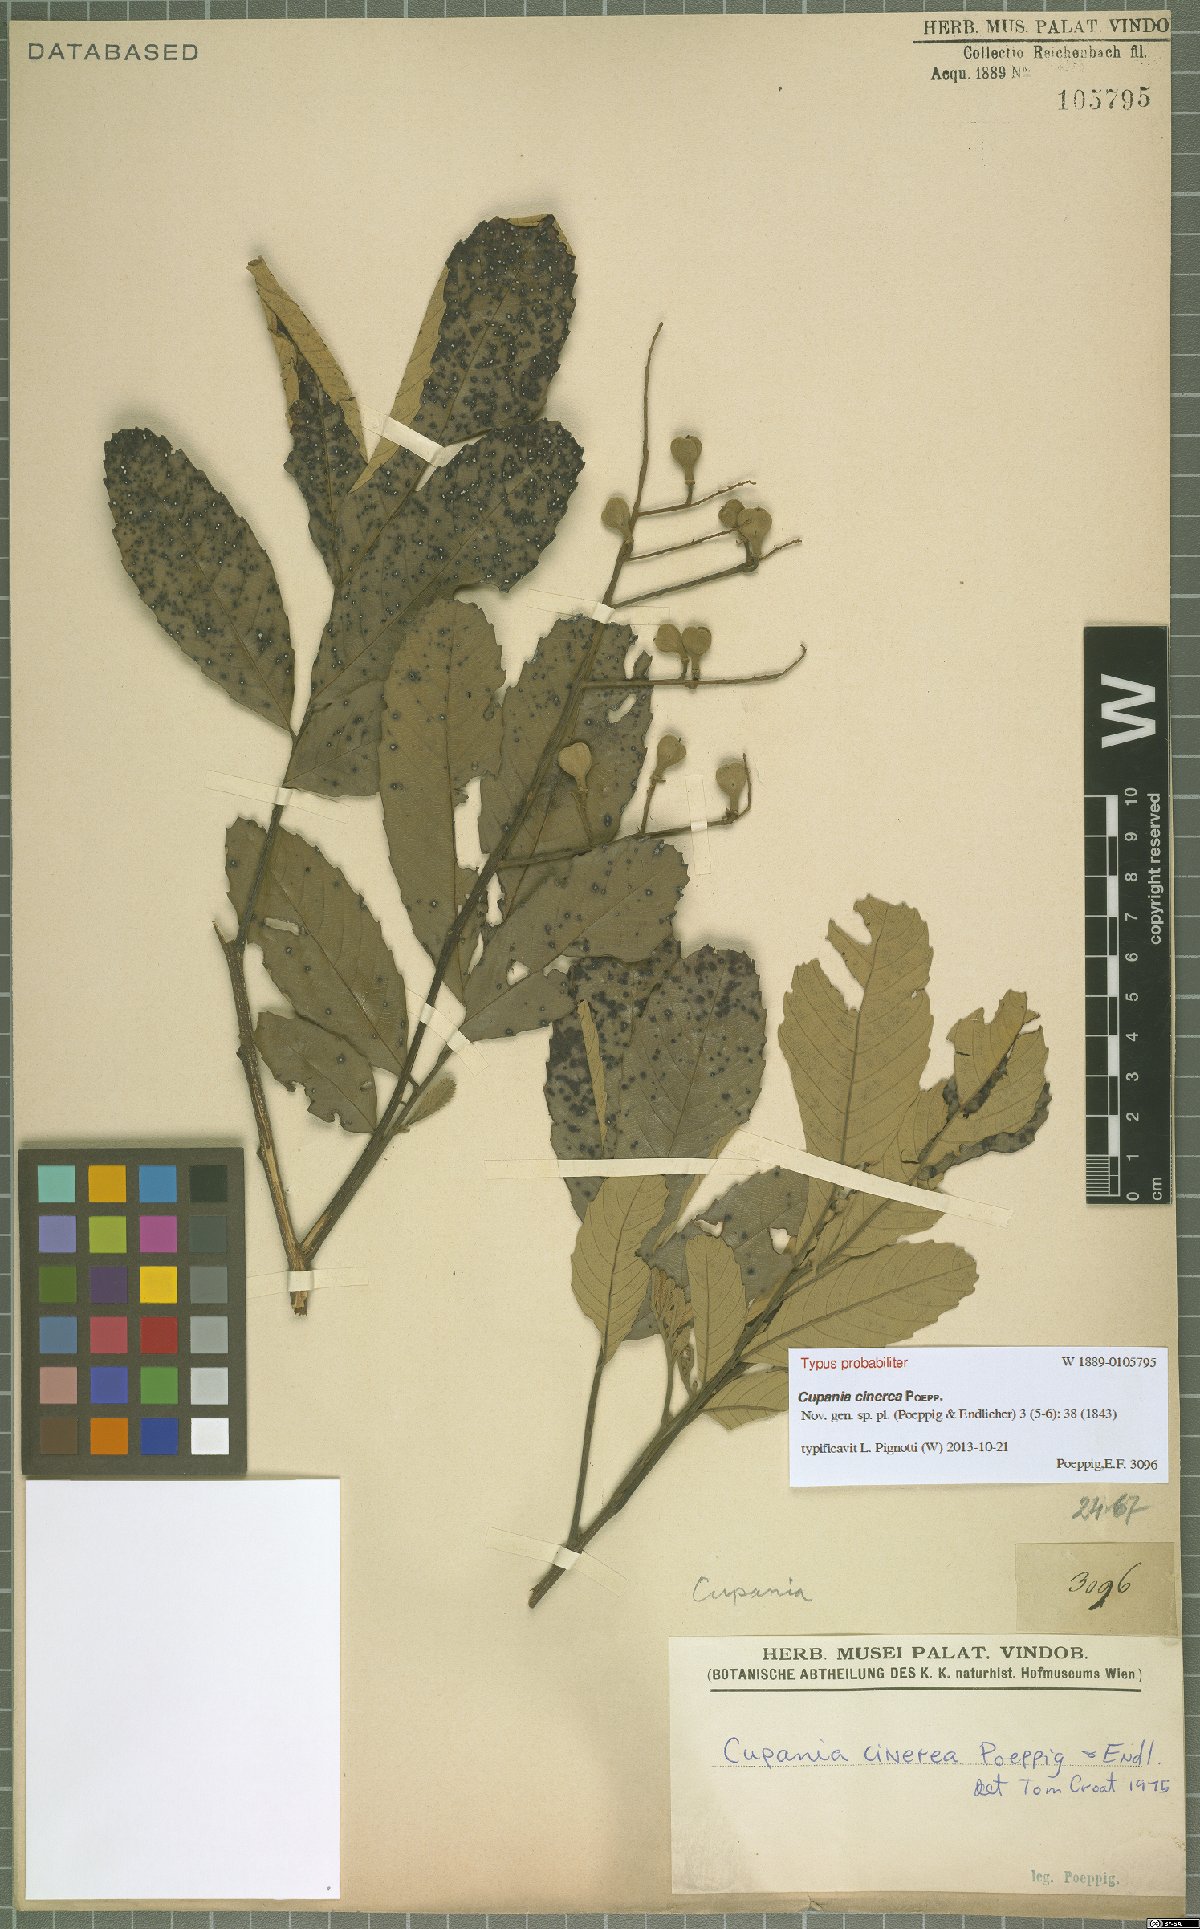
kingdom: Plantae
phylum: Tracheophyta
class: Magnoliopsida
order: Sapindales
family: Sapindaceae
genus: Cupania
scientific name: Cupania cinerea
